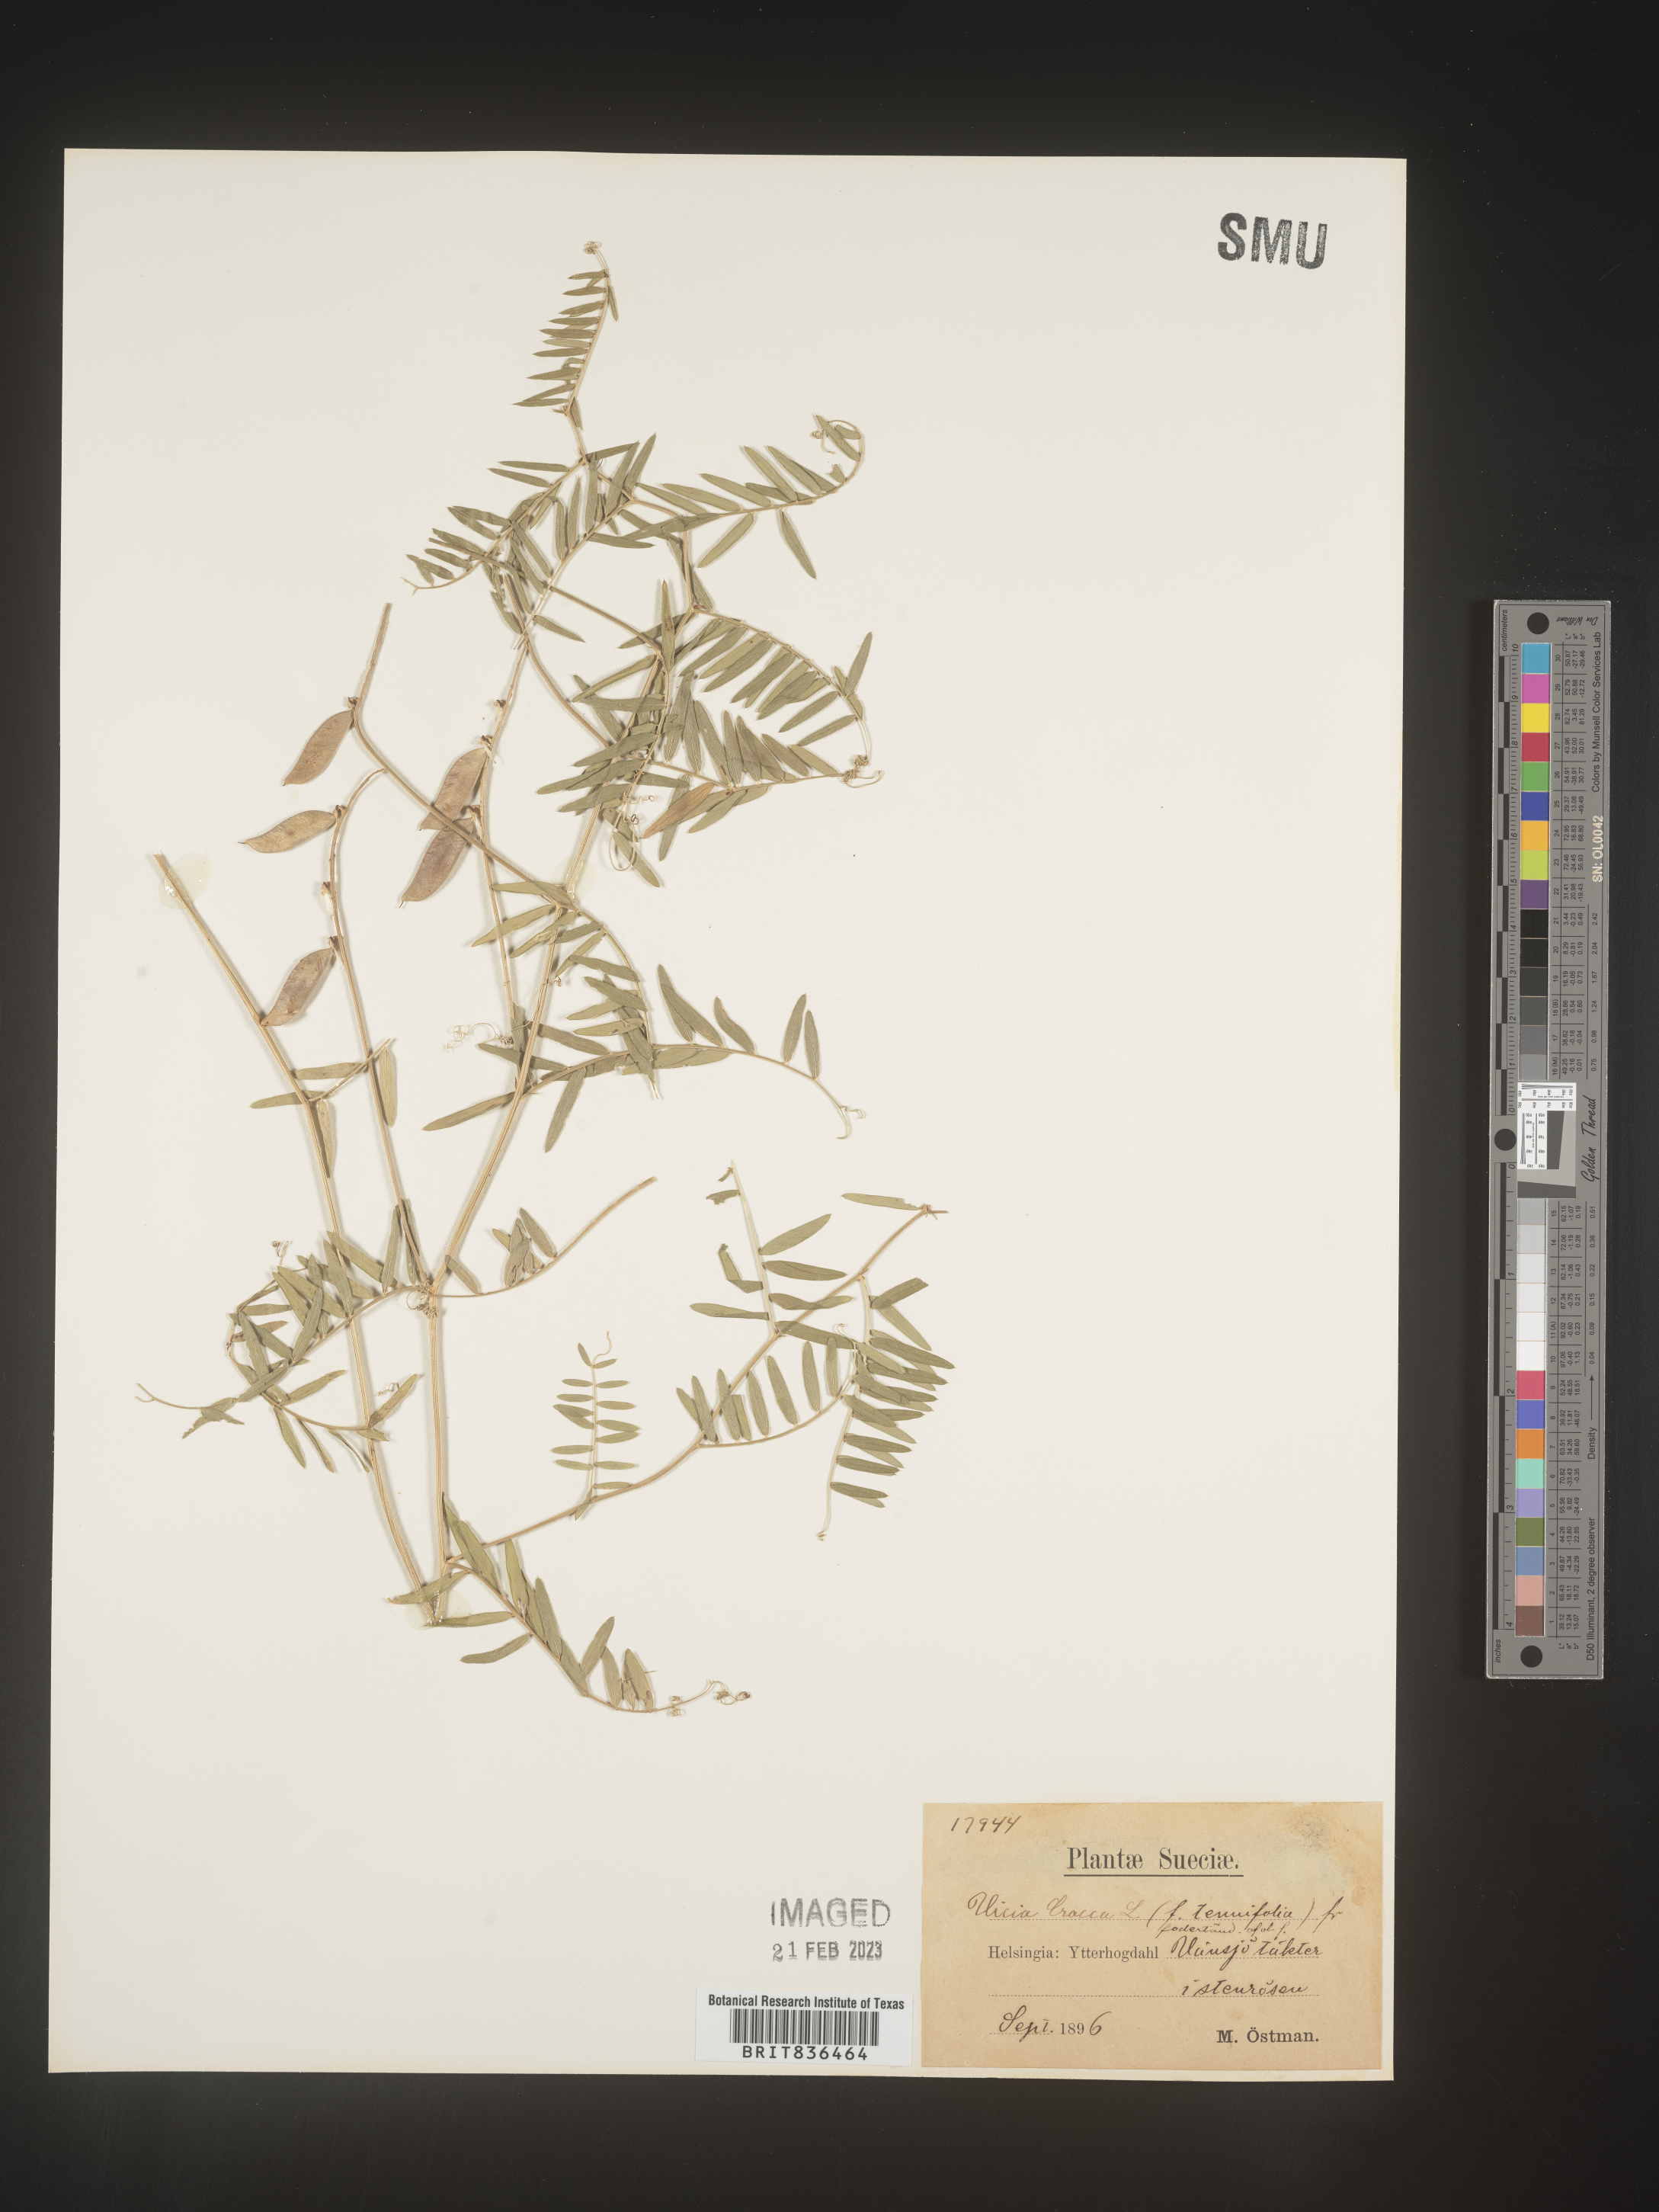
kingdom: Plantae
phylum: Tracheophyta
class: Magnoliopsida
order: Fabales
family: Fabaceae
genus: Vicia
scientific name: Vicia
